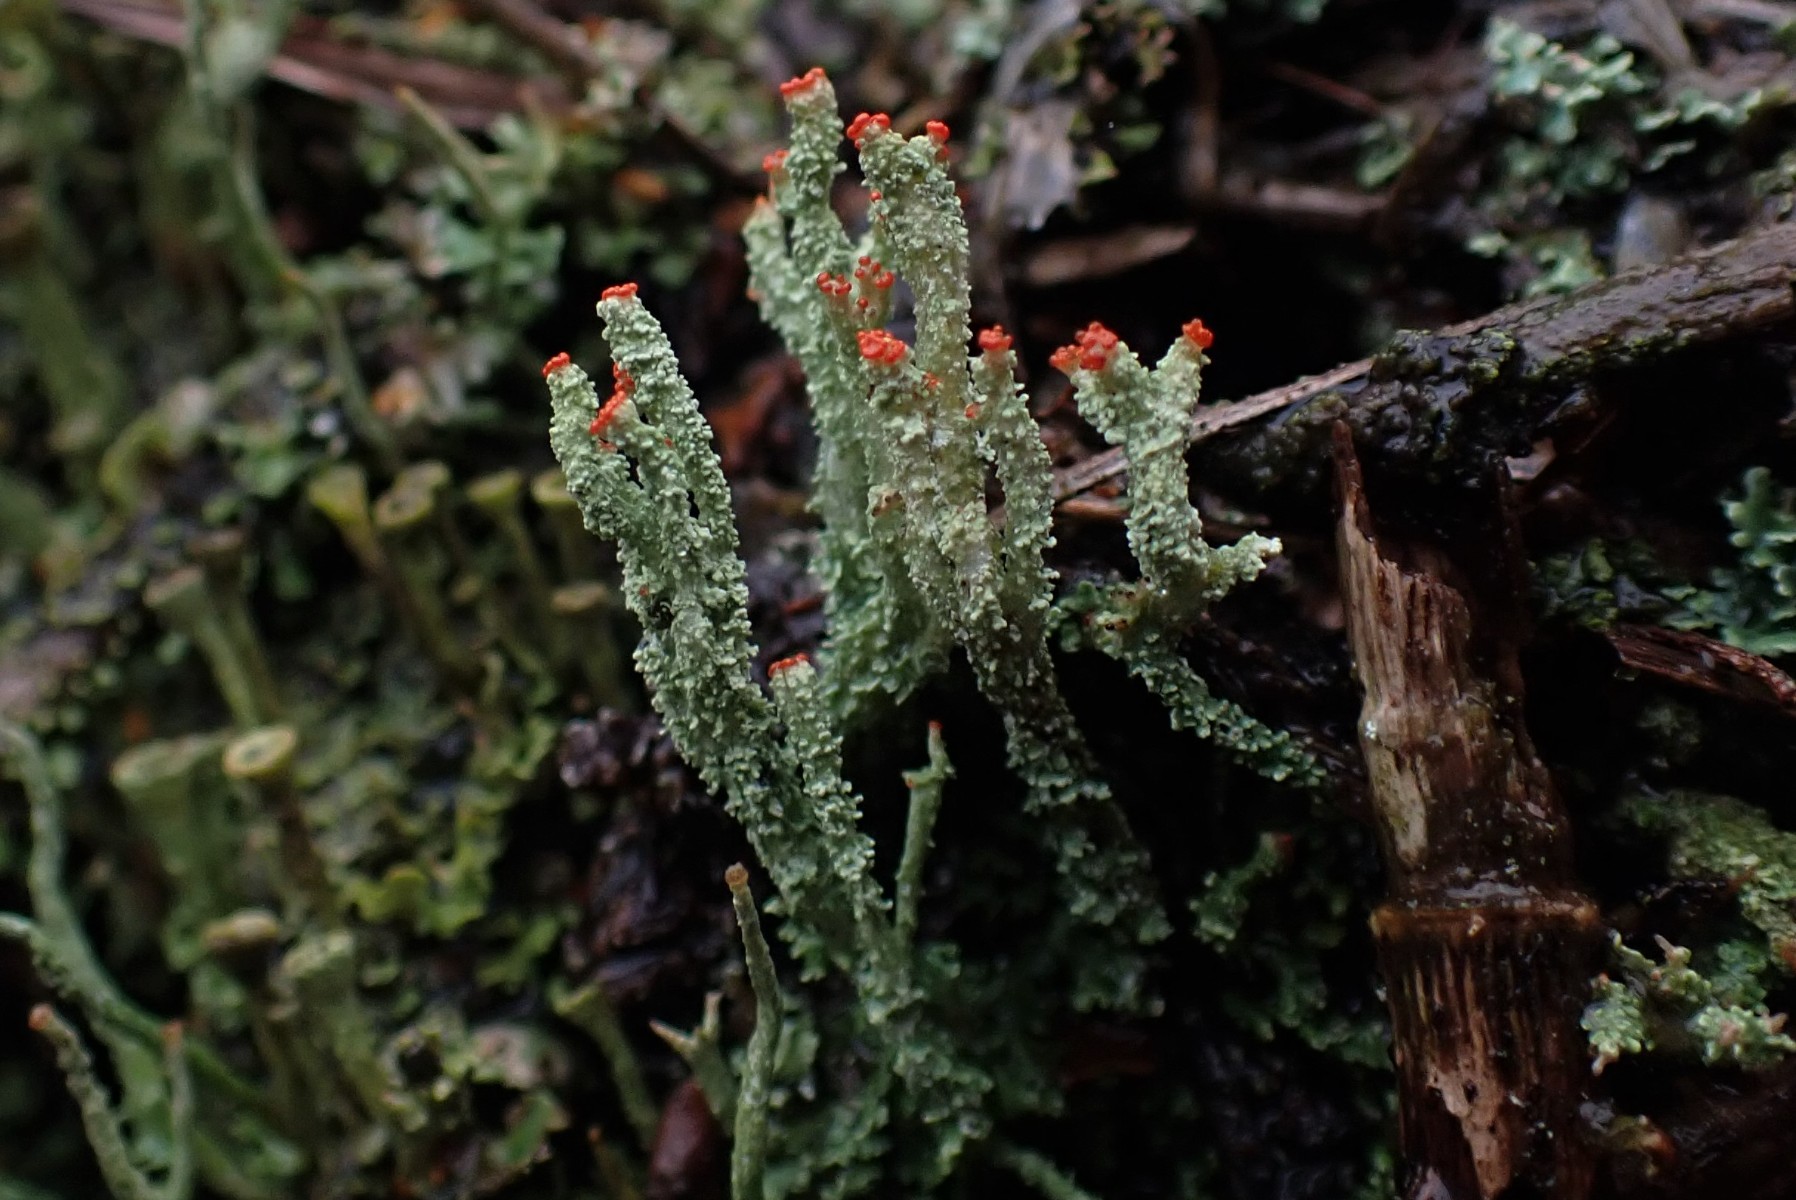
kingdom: Fungi
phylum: Ascomycota
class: Lecanoromycetes
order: Lecanorales
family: Cladoniaceae
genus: Cladonia
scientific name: Cladonia
